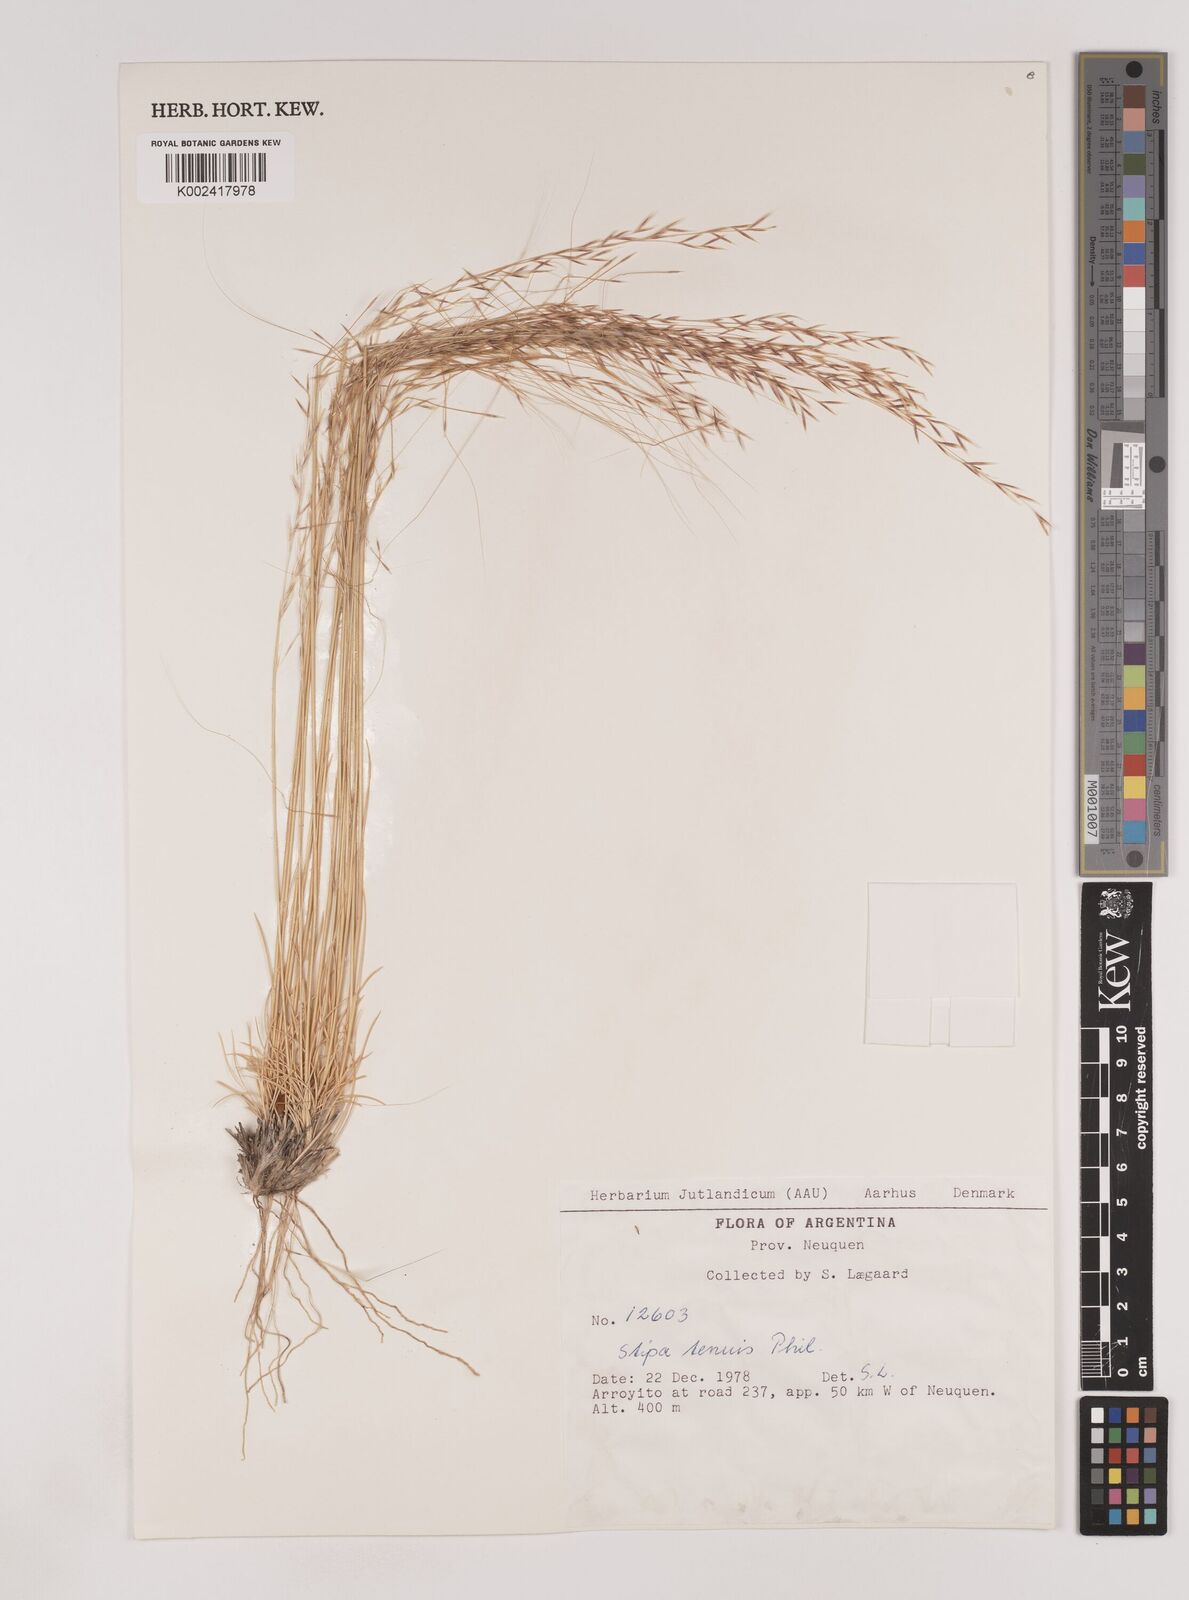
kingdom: Plantae
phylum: Tracheophyta
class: Liliopsida
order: Poales
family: Poaceae
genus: Nassella
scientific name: Nassella tenuis
